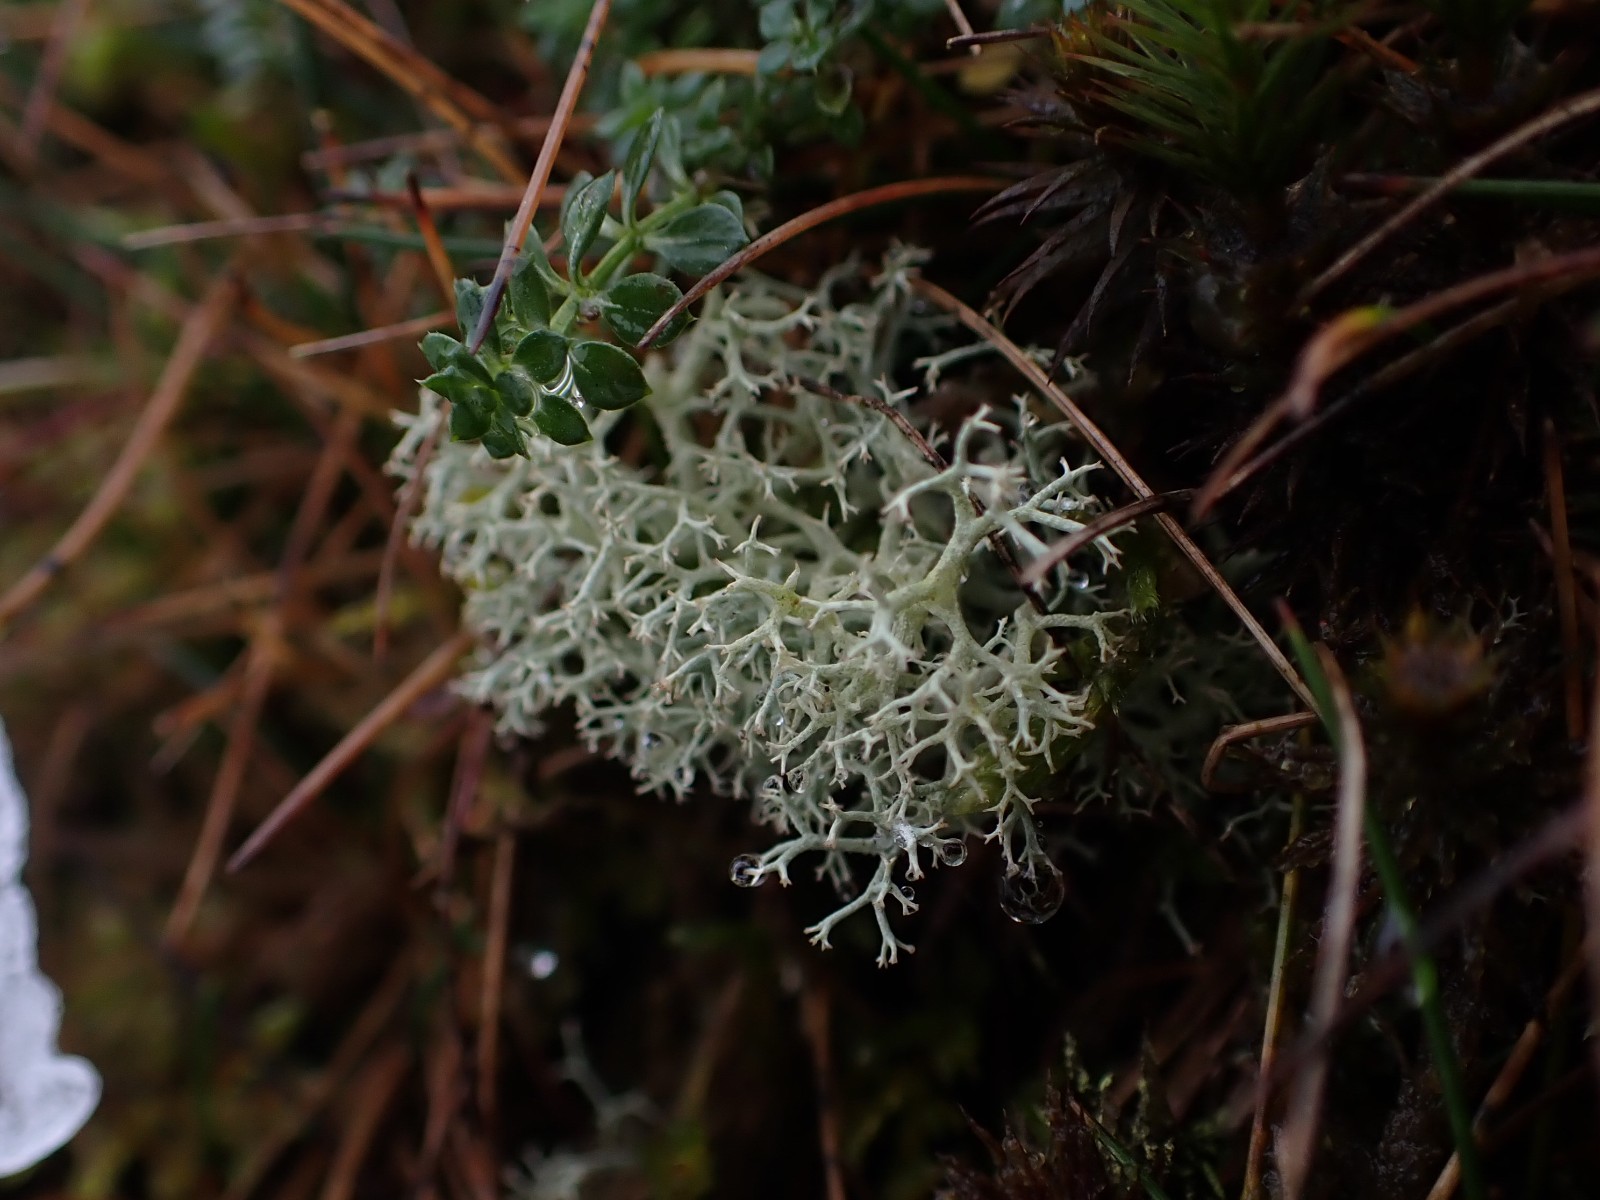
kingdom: Fungi
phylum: Ascomycota
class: Lecanoromycetes
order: Lecanorales
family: Cladoniaceae
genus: Cladonia
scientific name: Cladonia portentosa
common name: hede-rensdyrlav
